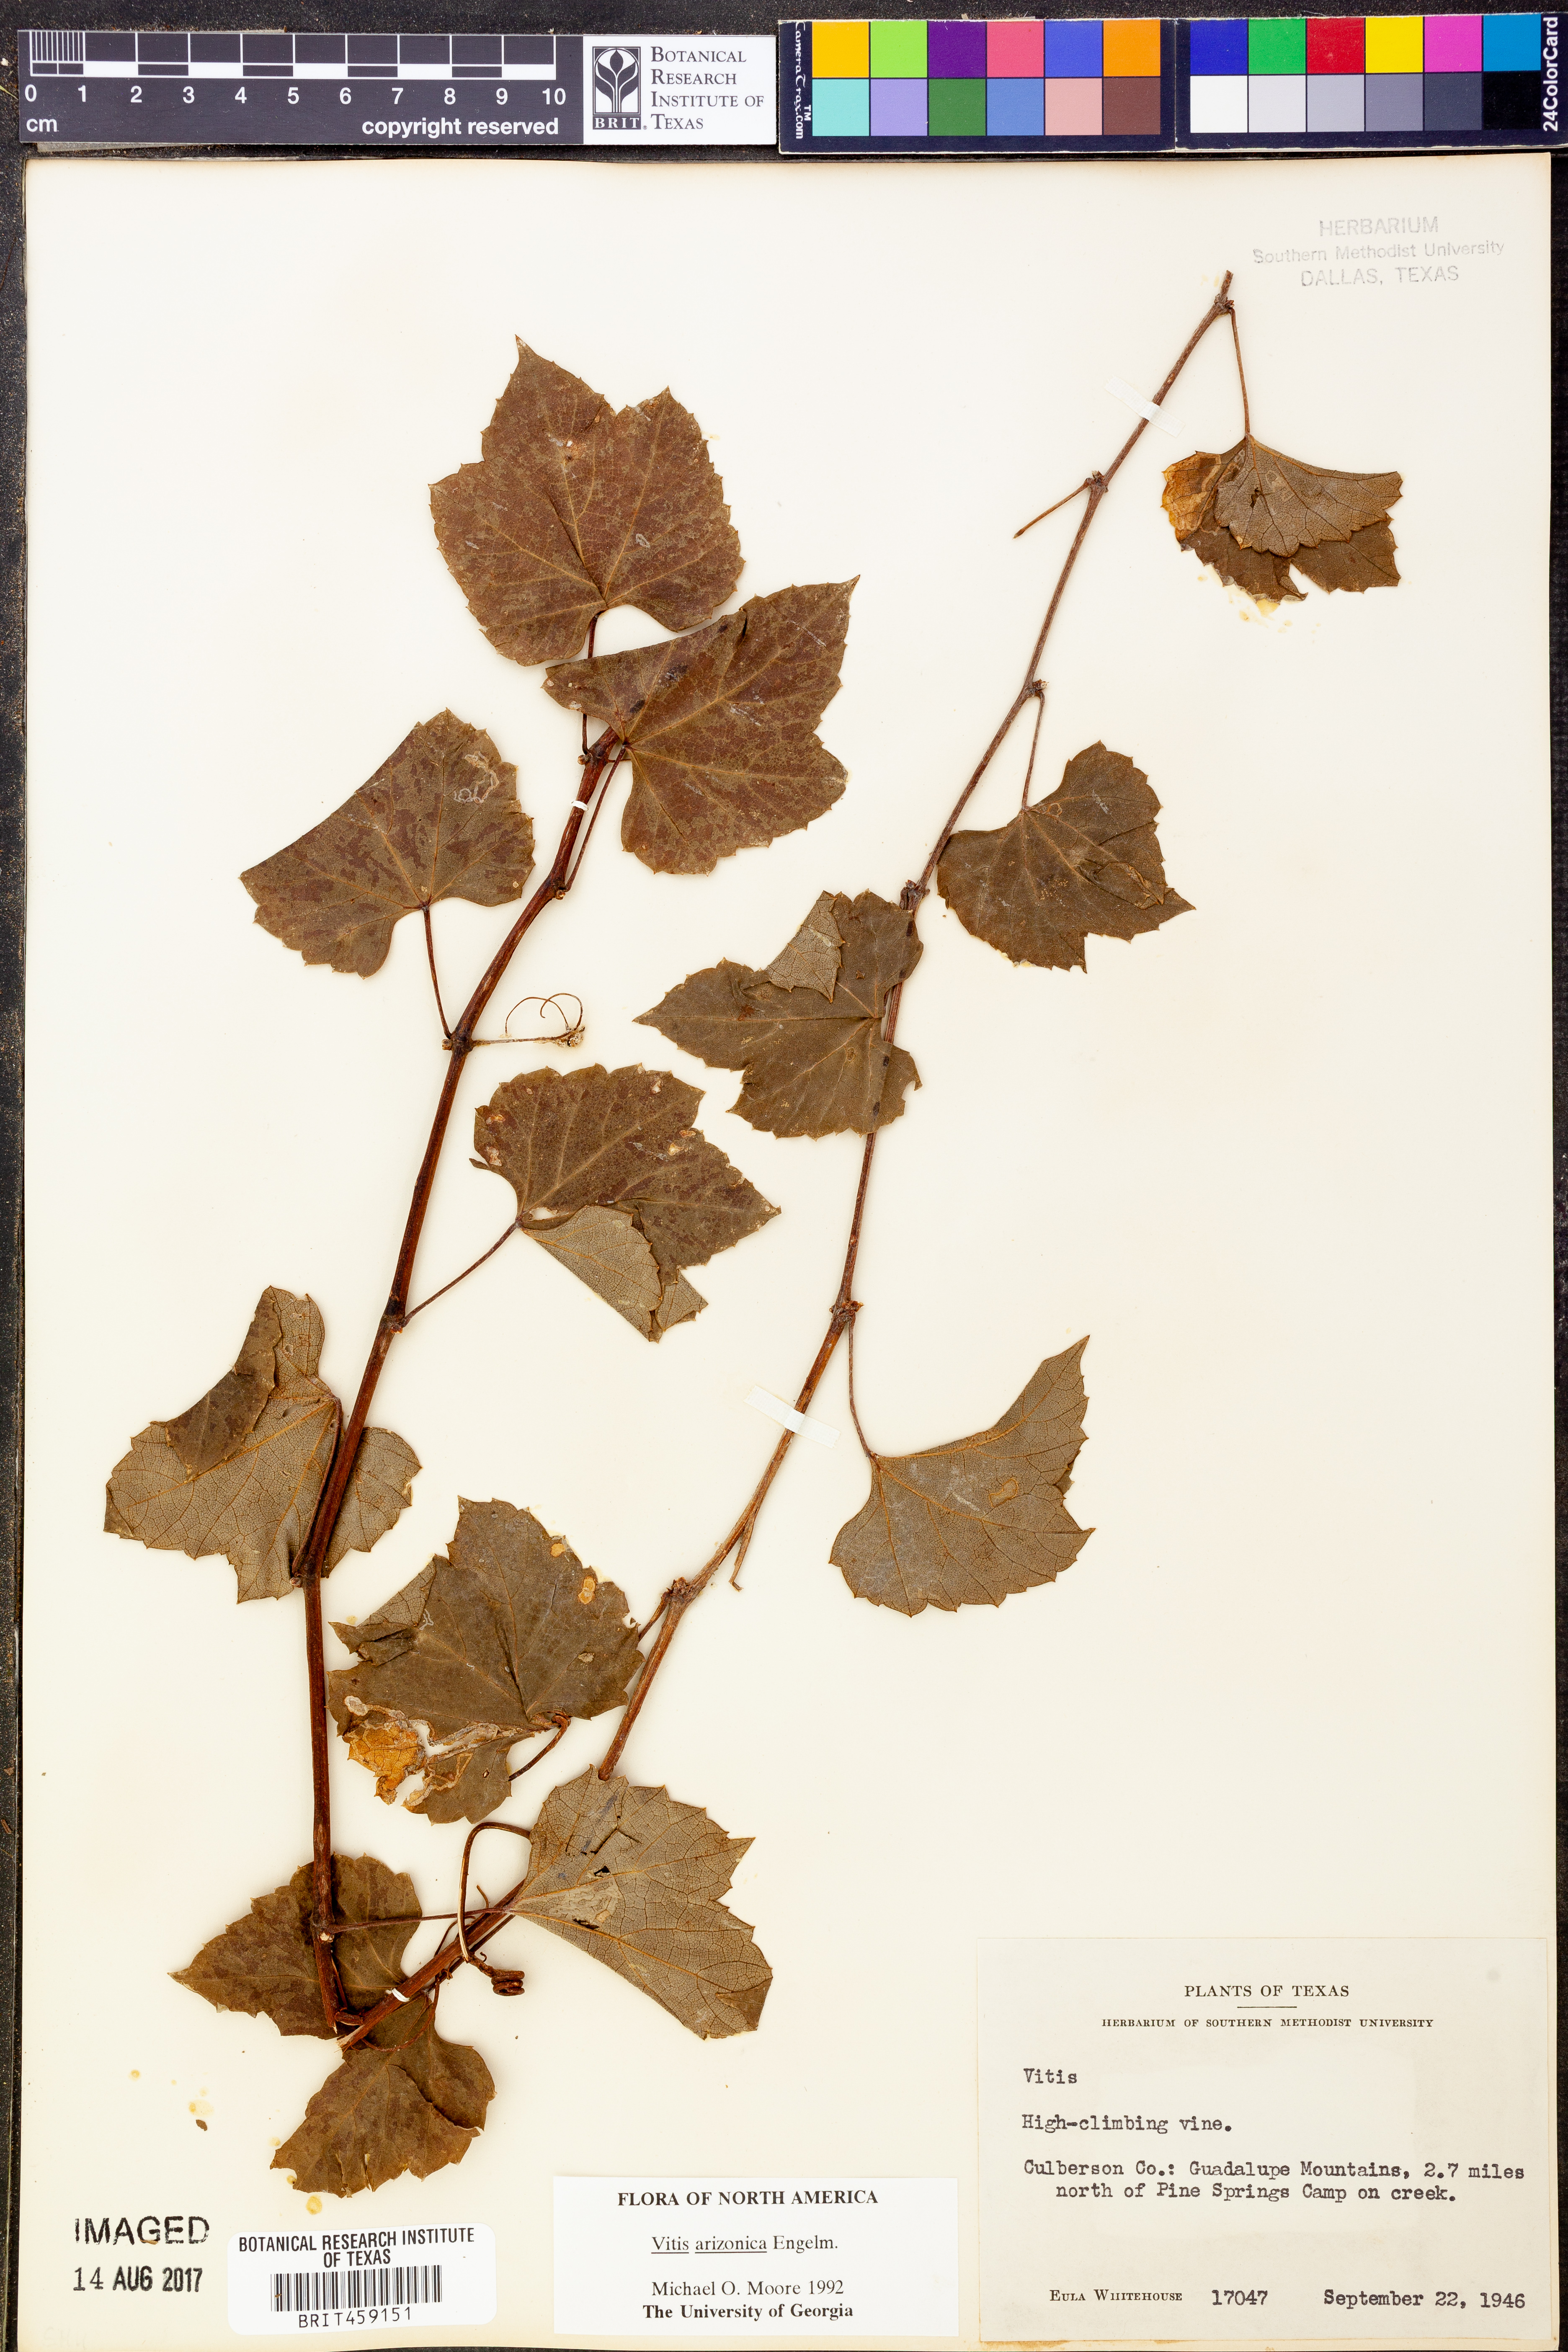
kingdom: Plantae
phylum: Tracheophyta
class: Magnoliopsida
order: Vitales
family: Vitaceae
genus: Vitis
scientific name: Vitis arizonica
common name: Canyon grape
